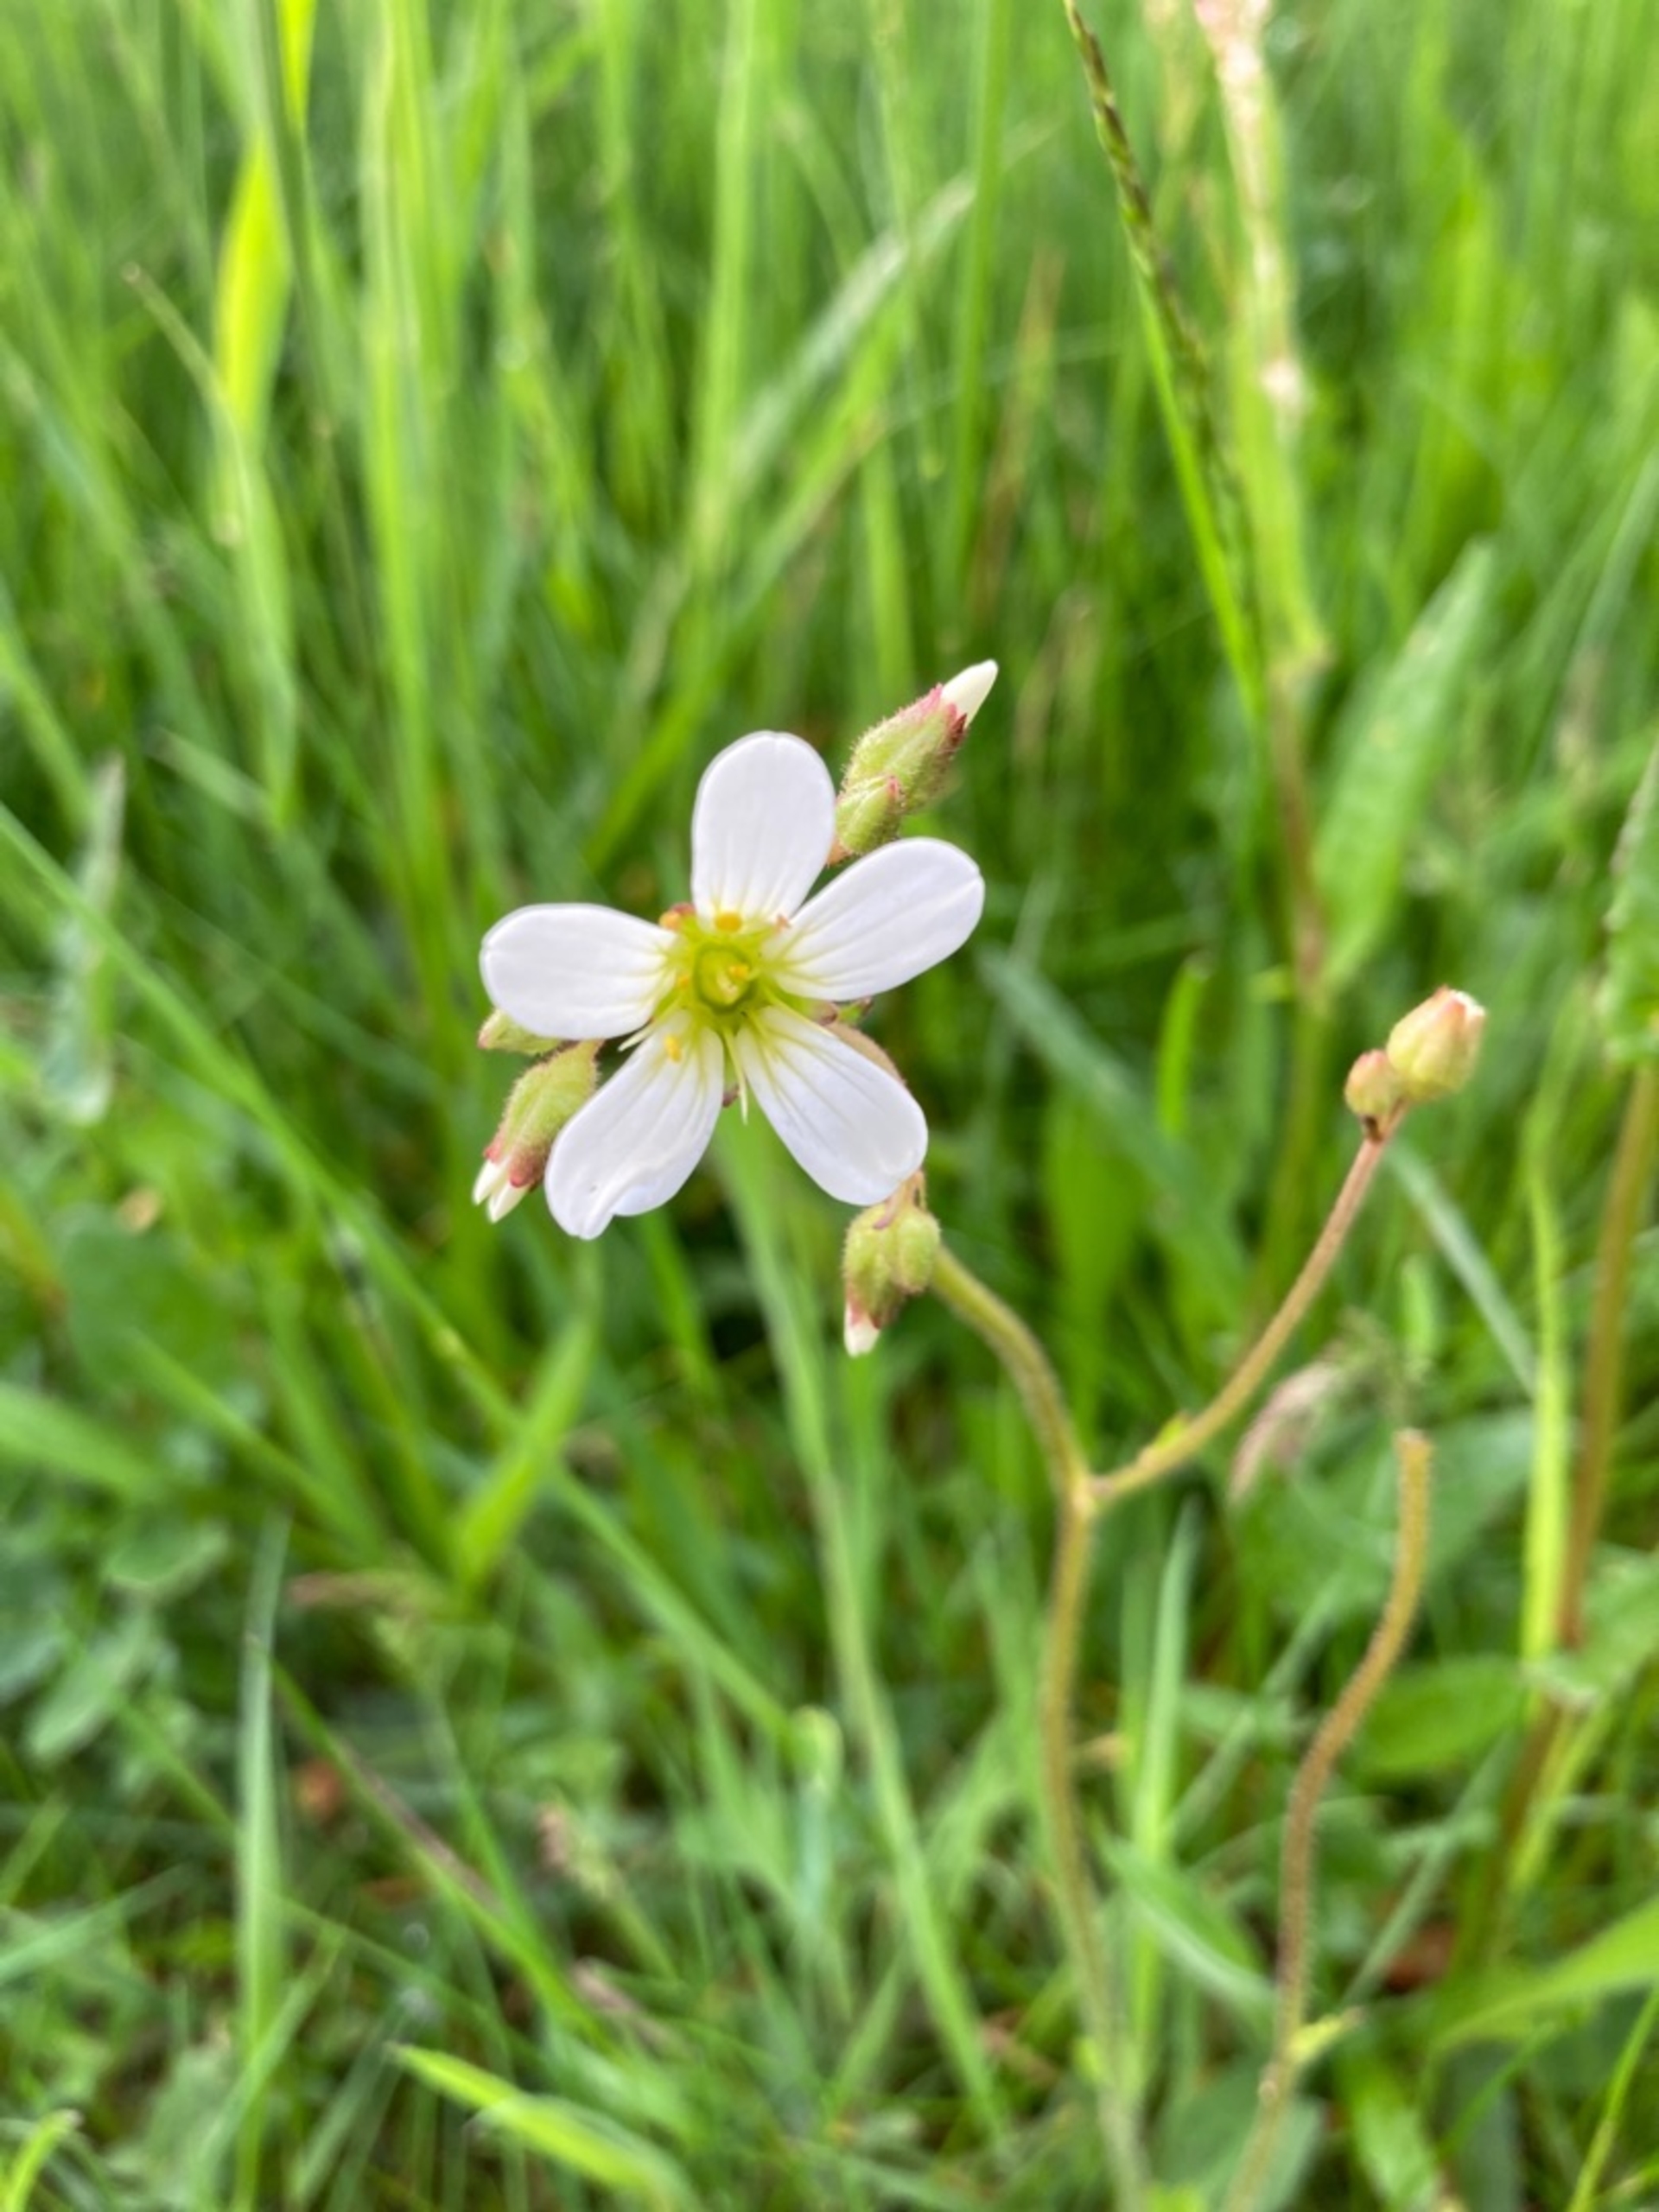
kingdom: Plantae
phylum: Tracheophyta
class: Magnoliopsida
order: Saxifragales
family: Saxifragaceae
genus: Saxifraga
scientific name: Saxifraga granulata
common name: Kornet stenbræk
